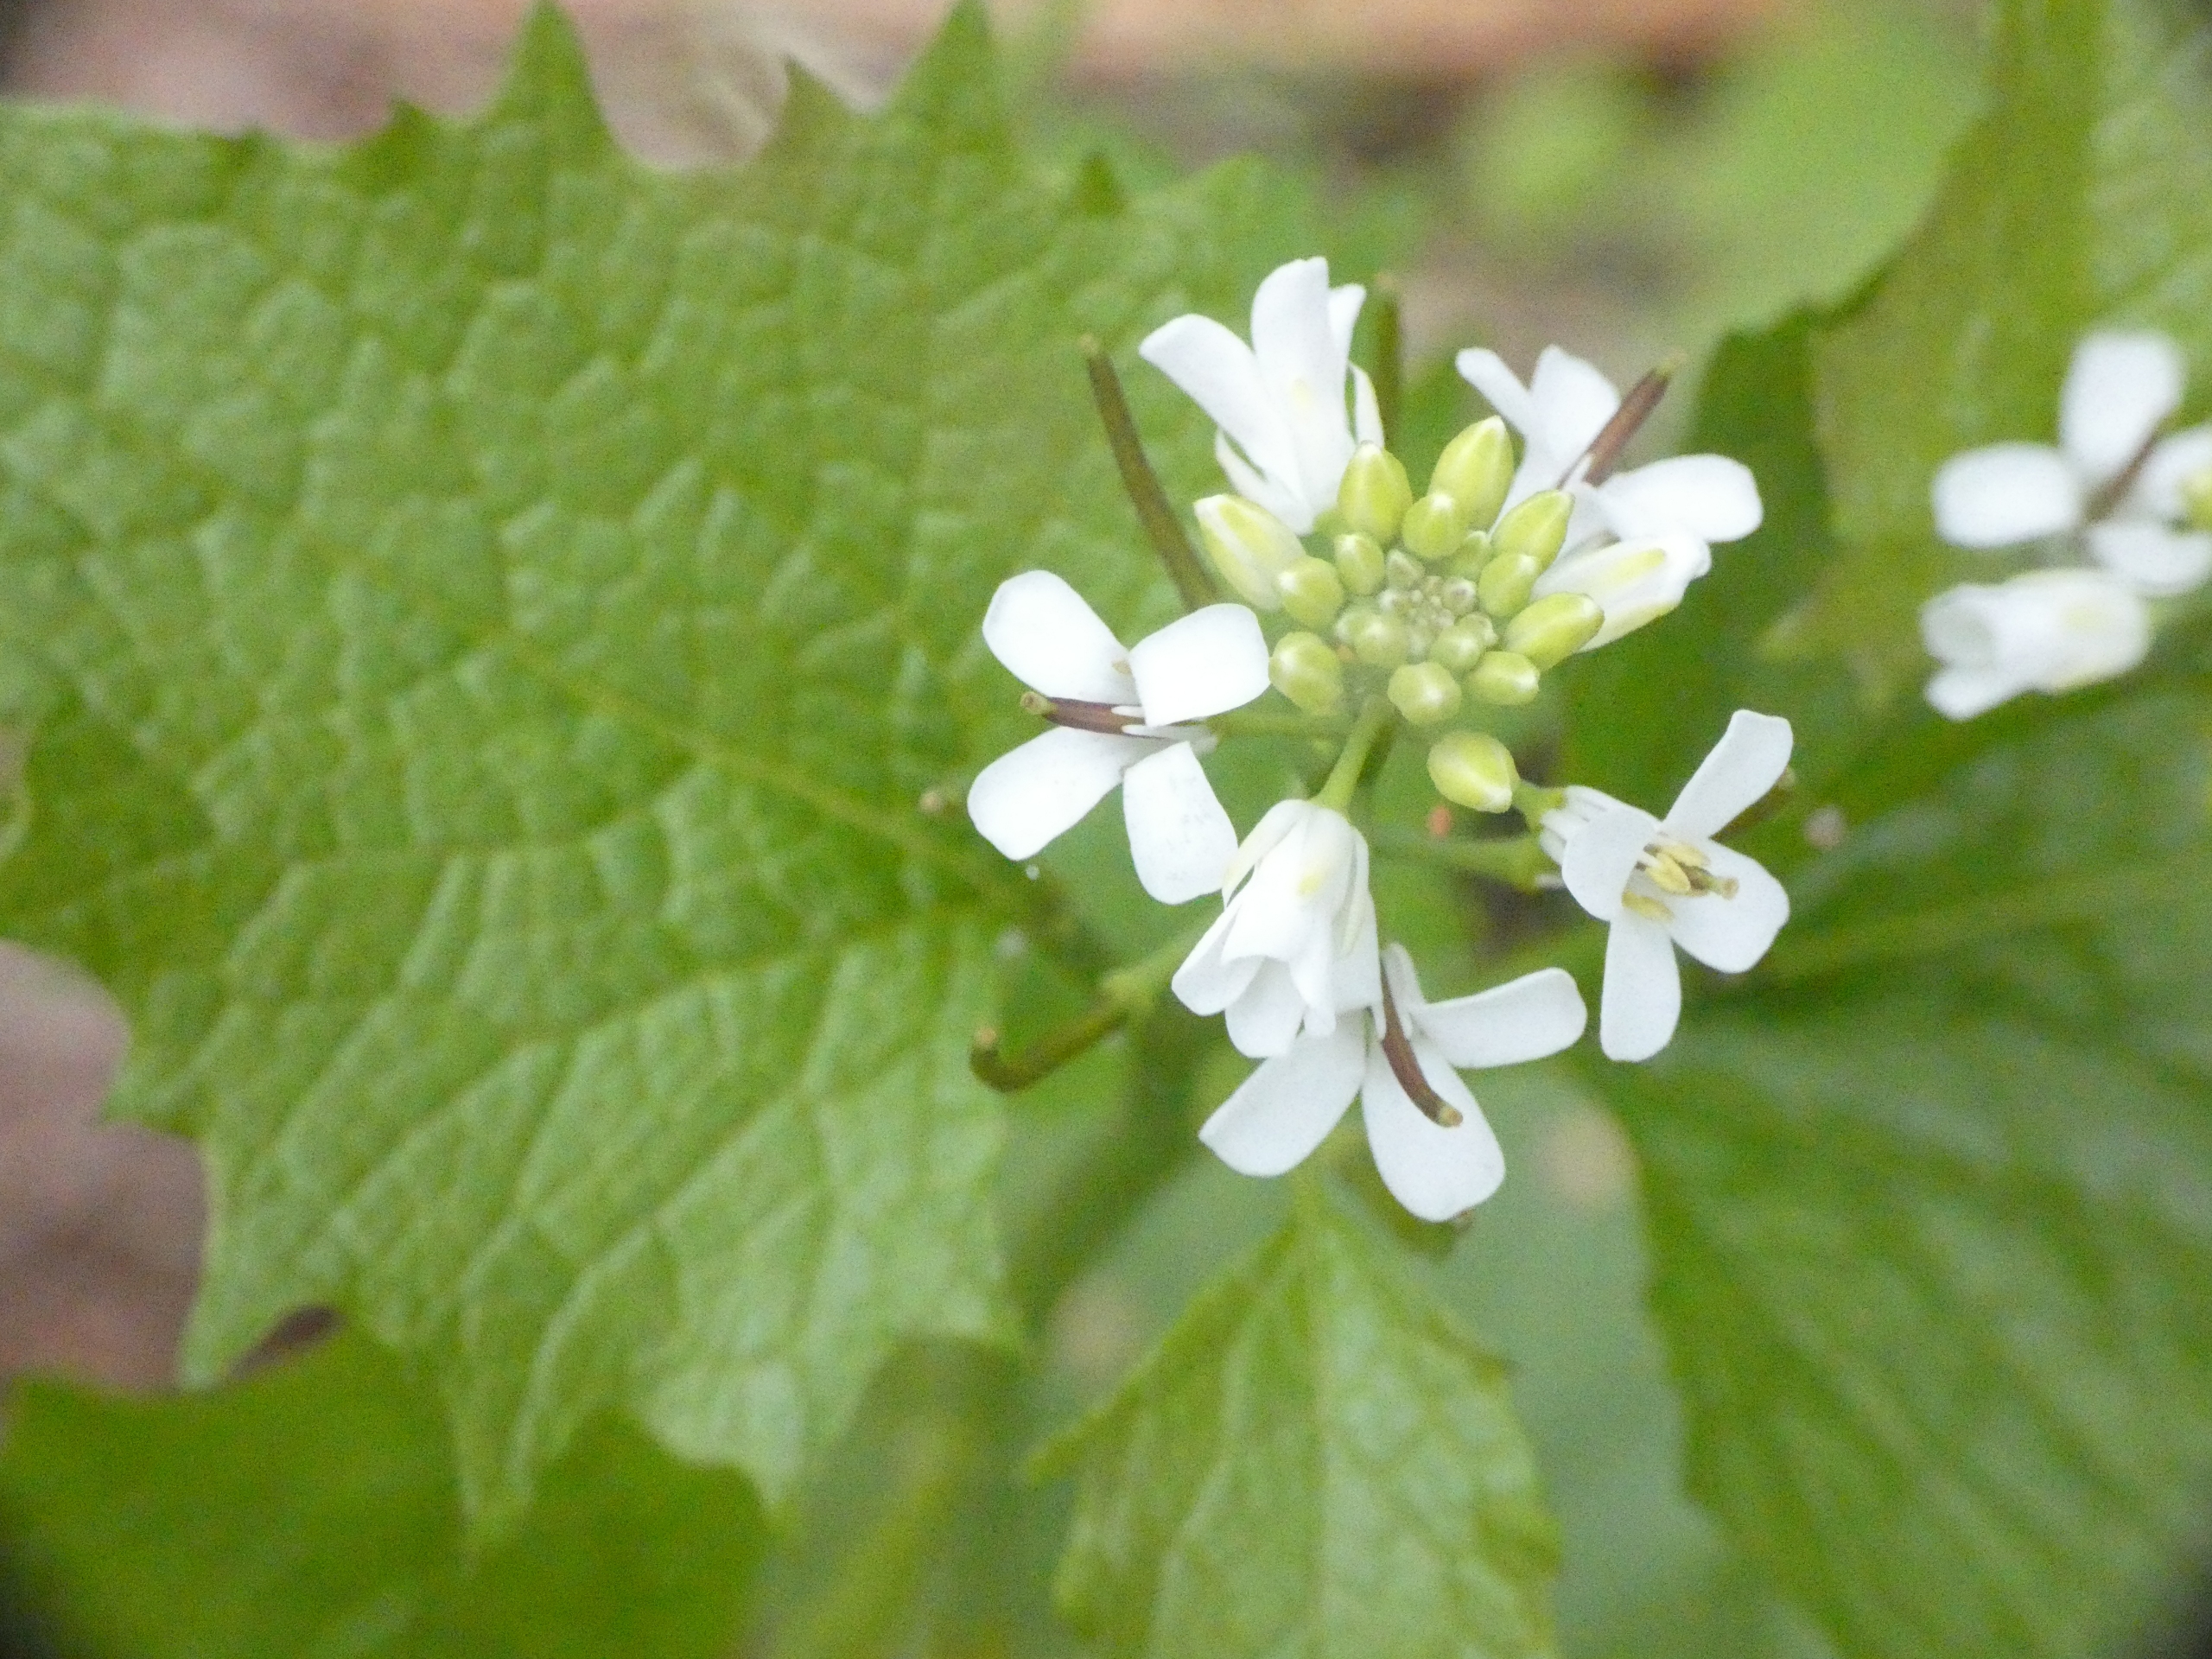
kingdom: Plantae
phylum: Tracheophyta
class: Magnoliopsida
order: Brassicales
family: Brassicaceae
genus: Alliaria
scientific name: Alliaria petiolata
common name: Løgkarse
